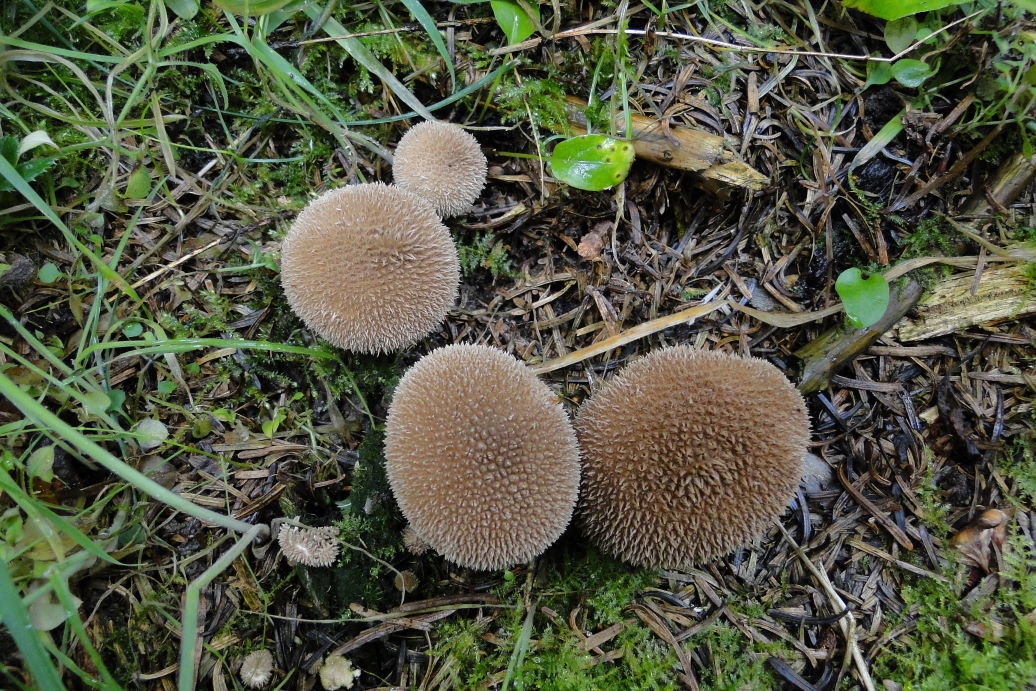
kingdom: Fungi
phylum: Basidiomycota
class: Agaricomycetes
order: Agaricales
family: Lycoperdaceae
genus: Lycoperdon
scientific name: Lycoperdon nigrescens
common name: sortagtig støvbold
